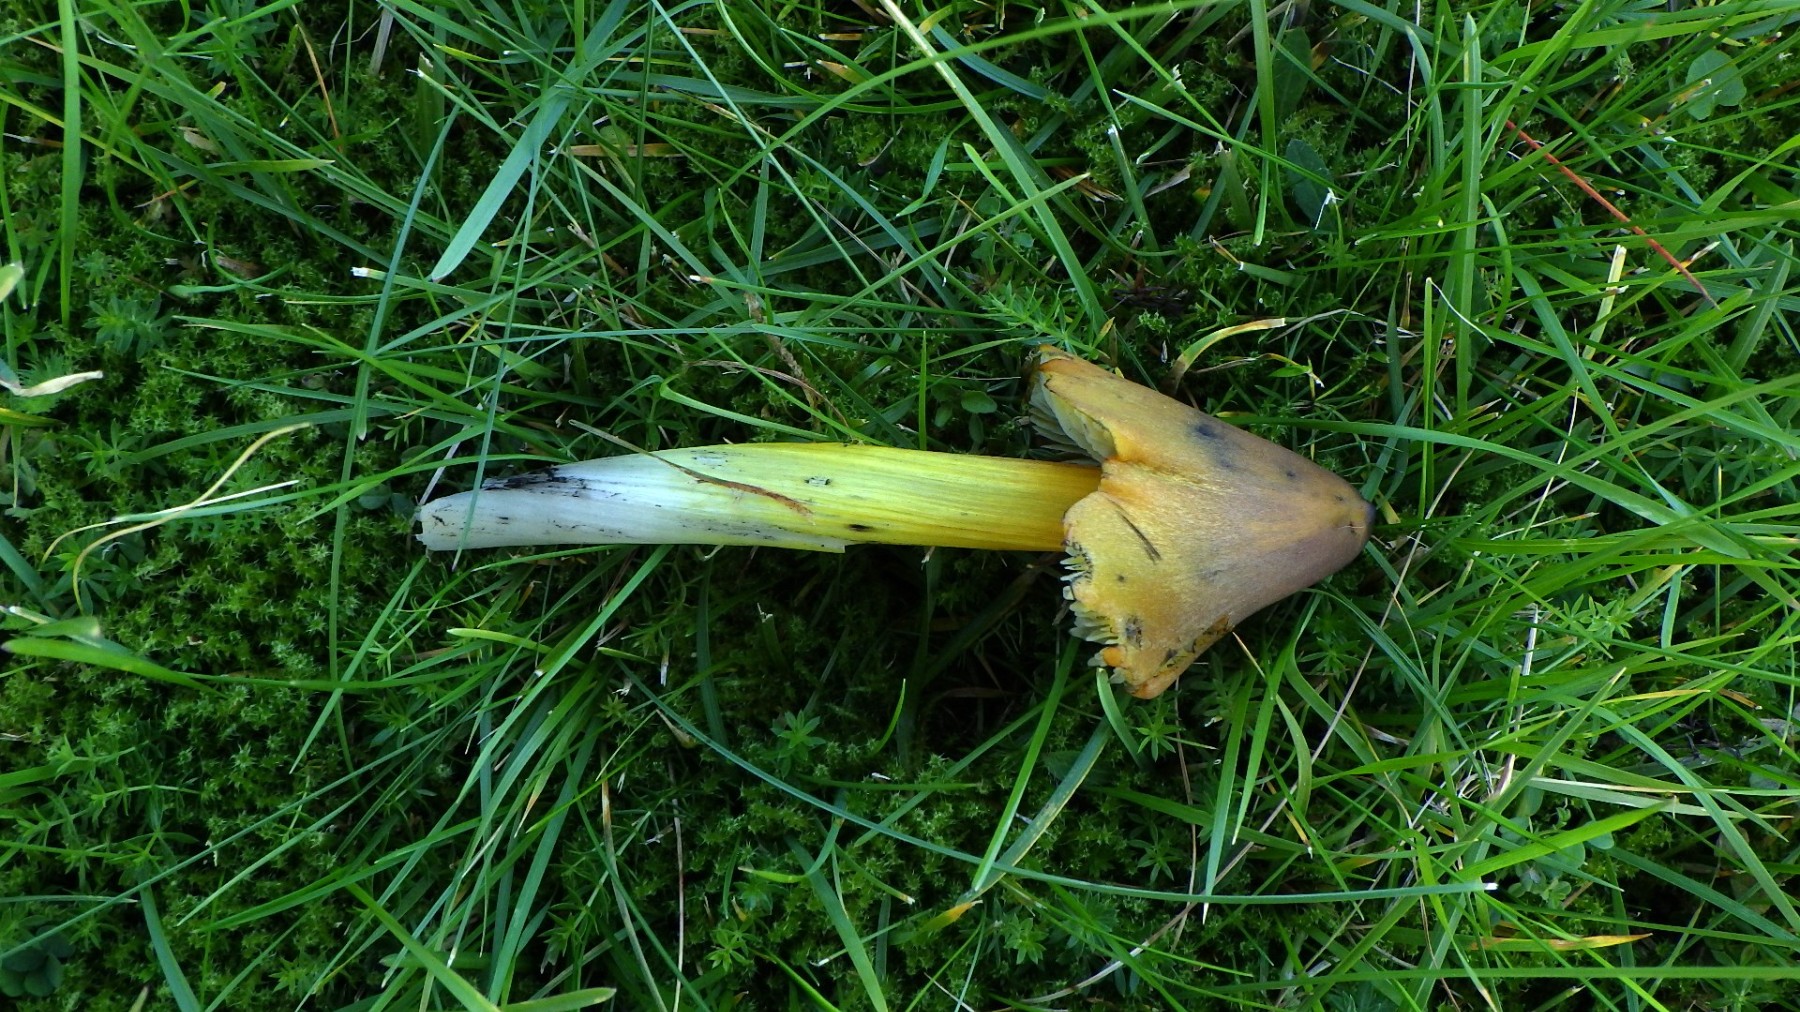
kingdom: Fungi
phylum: Basidiomycota
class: Agaricomycetes
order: Agaricales
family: Hygrophoraceae
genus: Hygrocybe
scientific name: Hygrocybe conica
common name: kegle-vokshat
